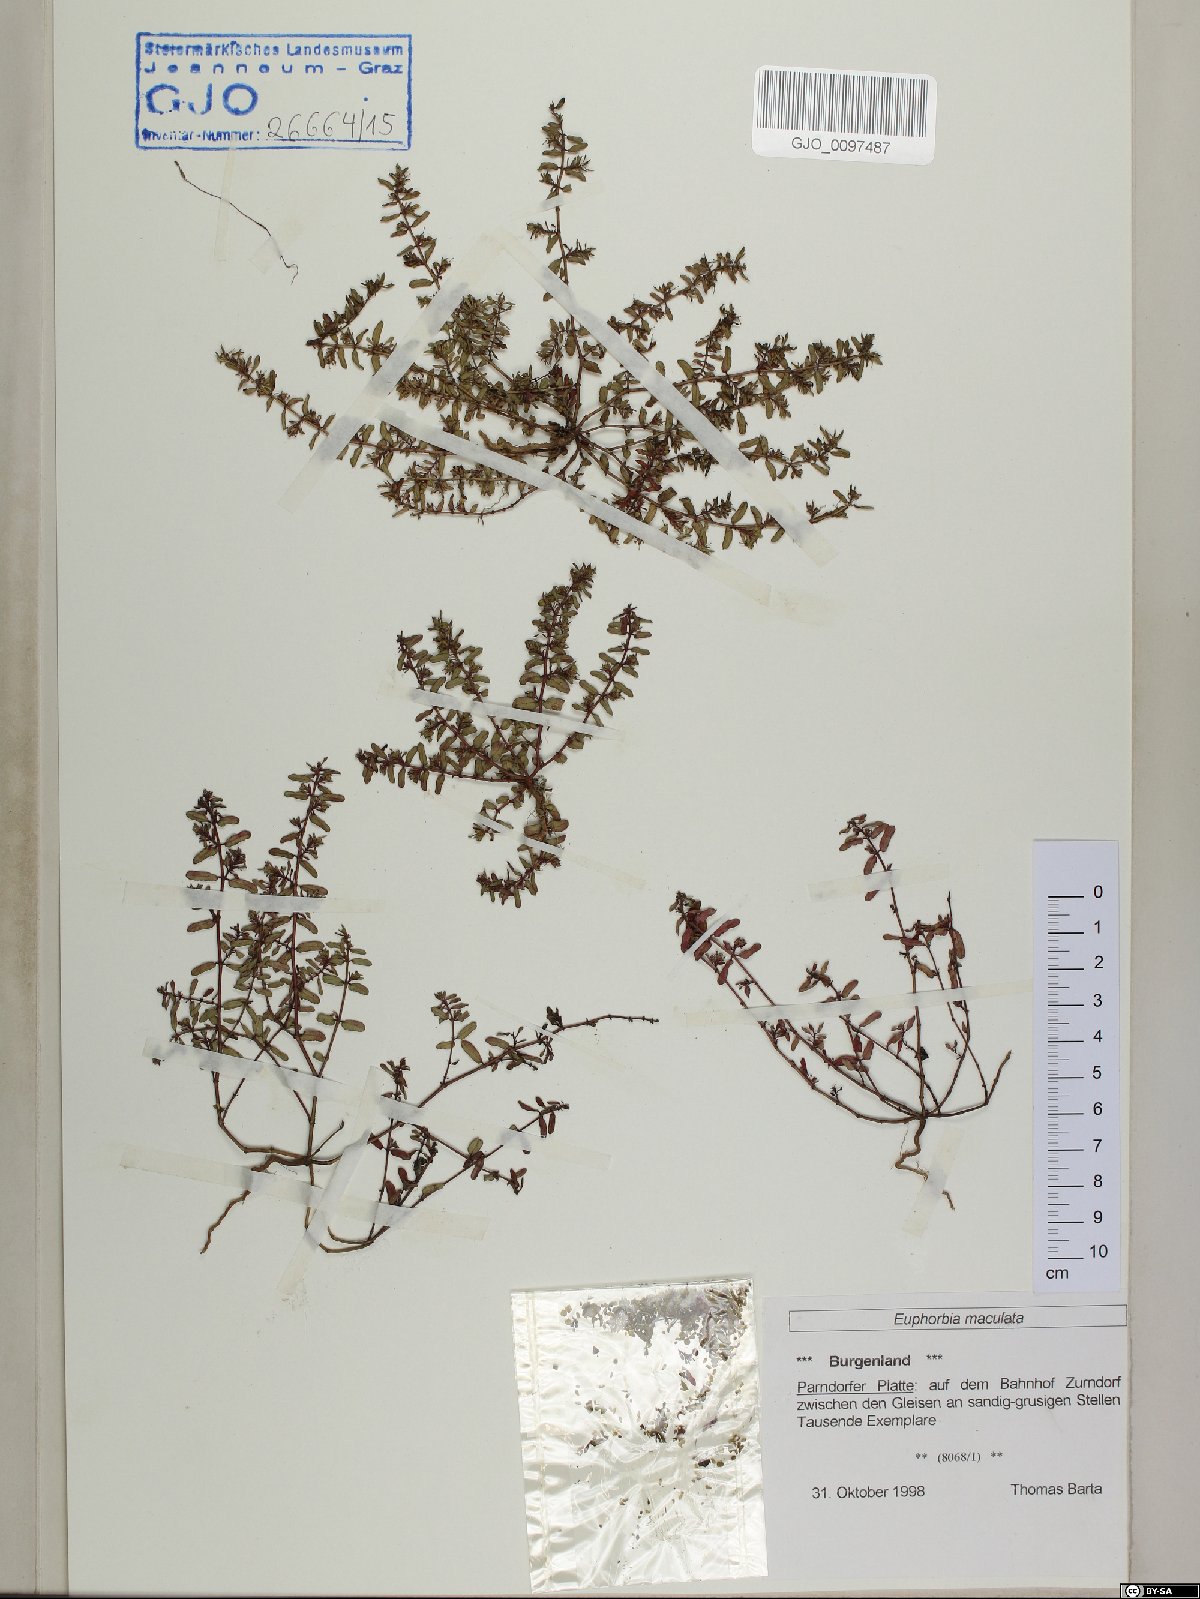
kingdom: Plantae
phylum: Tracheophyta
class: Magnoliopsida
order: Malpighiales
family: Euphorbiaceae
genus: Euphorbia
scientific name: Euphorbia maculata
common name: Spotted spurge
